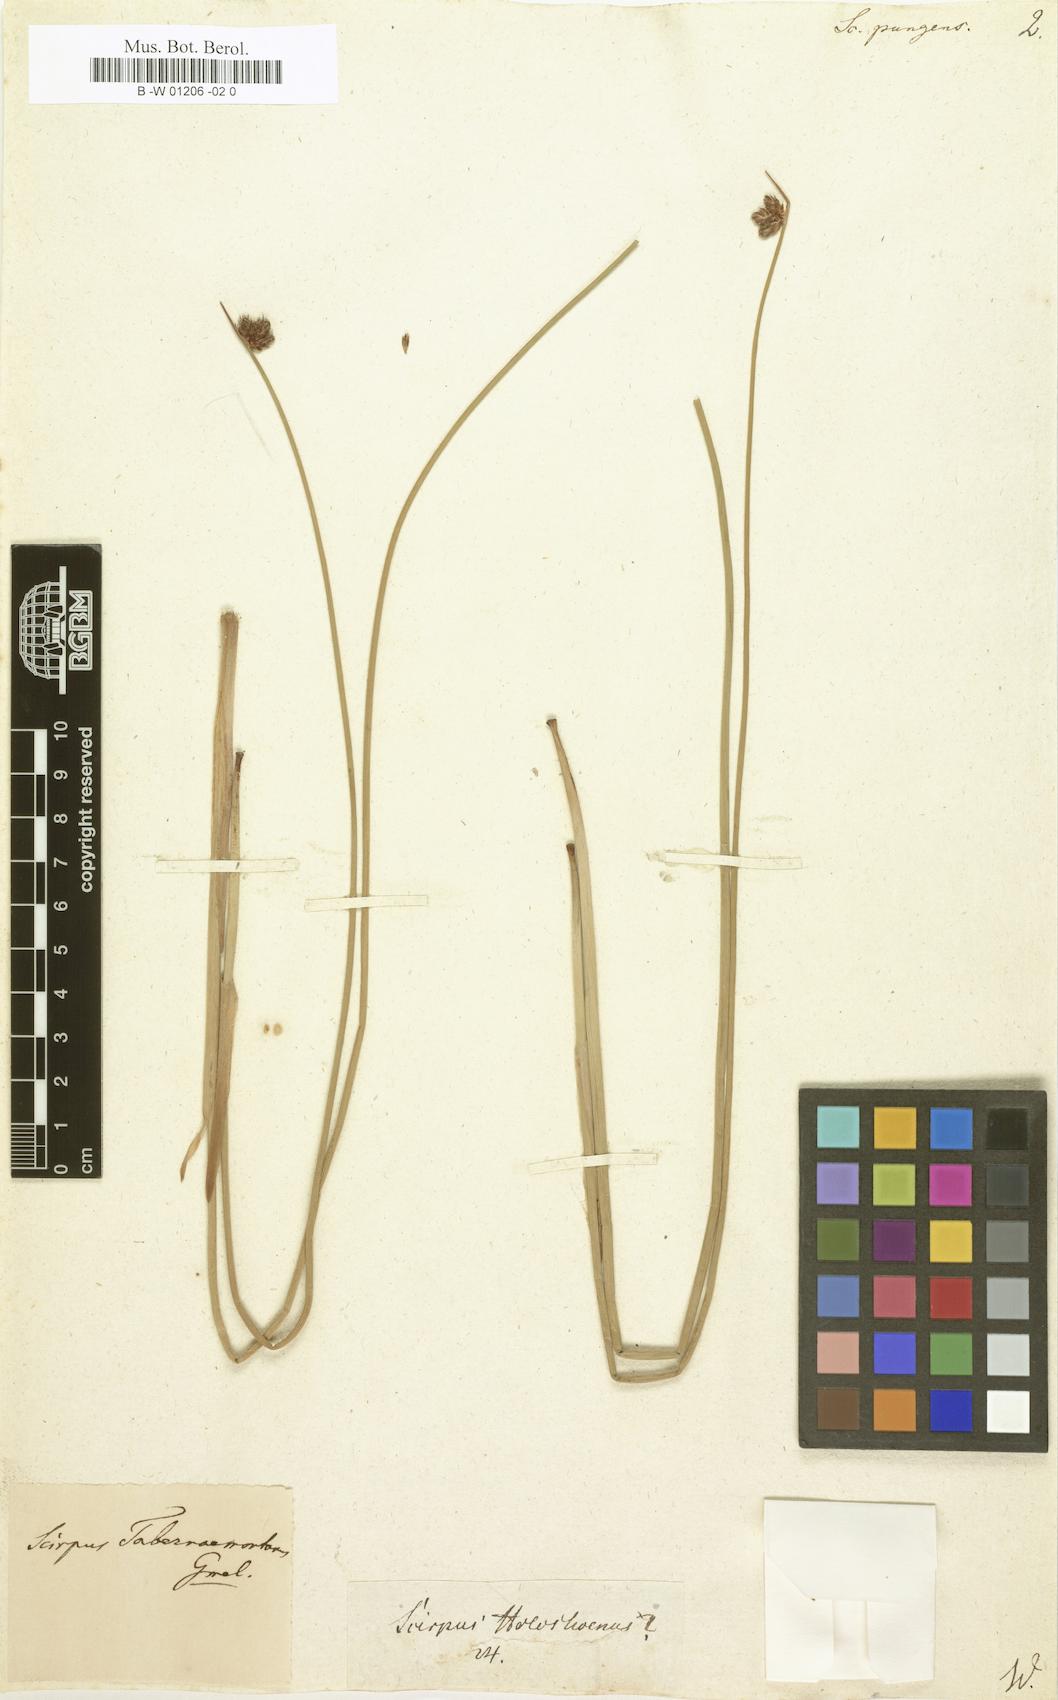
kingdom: Plantae
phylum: Tracheophyta
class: Liliopsida
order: Poales
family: Cyperaceae
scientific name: Cyperaceae
